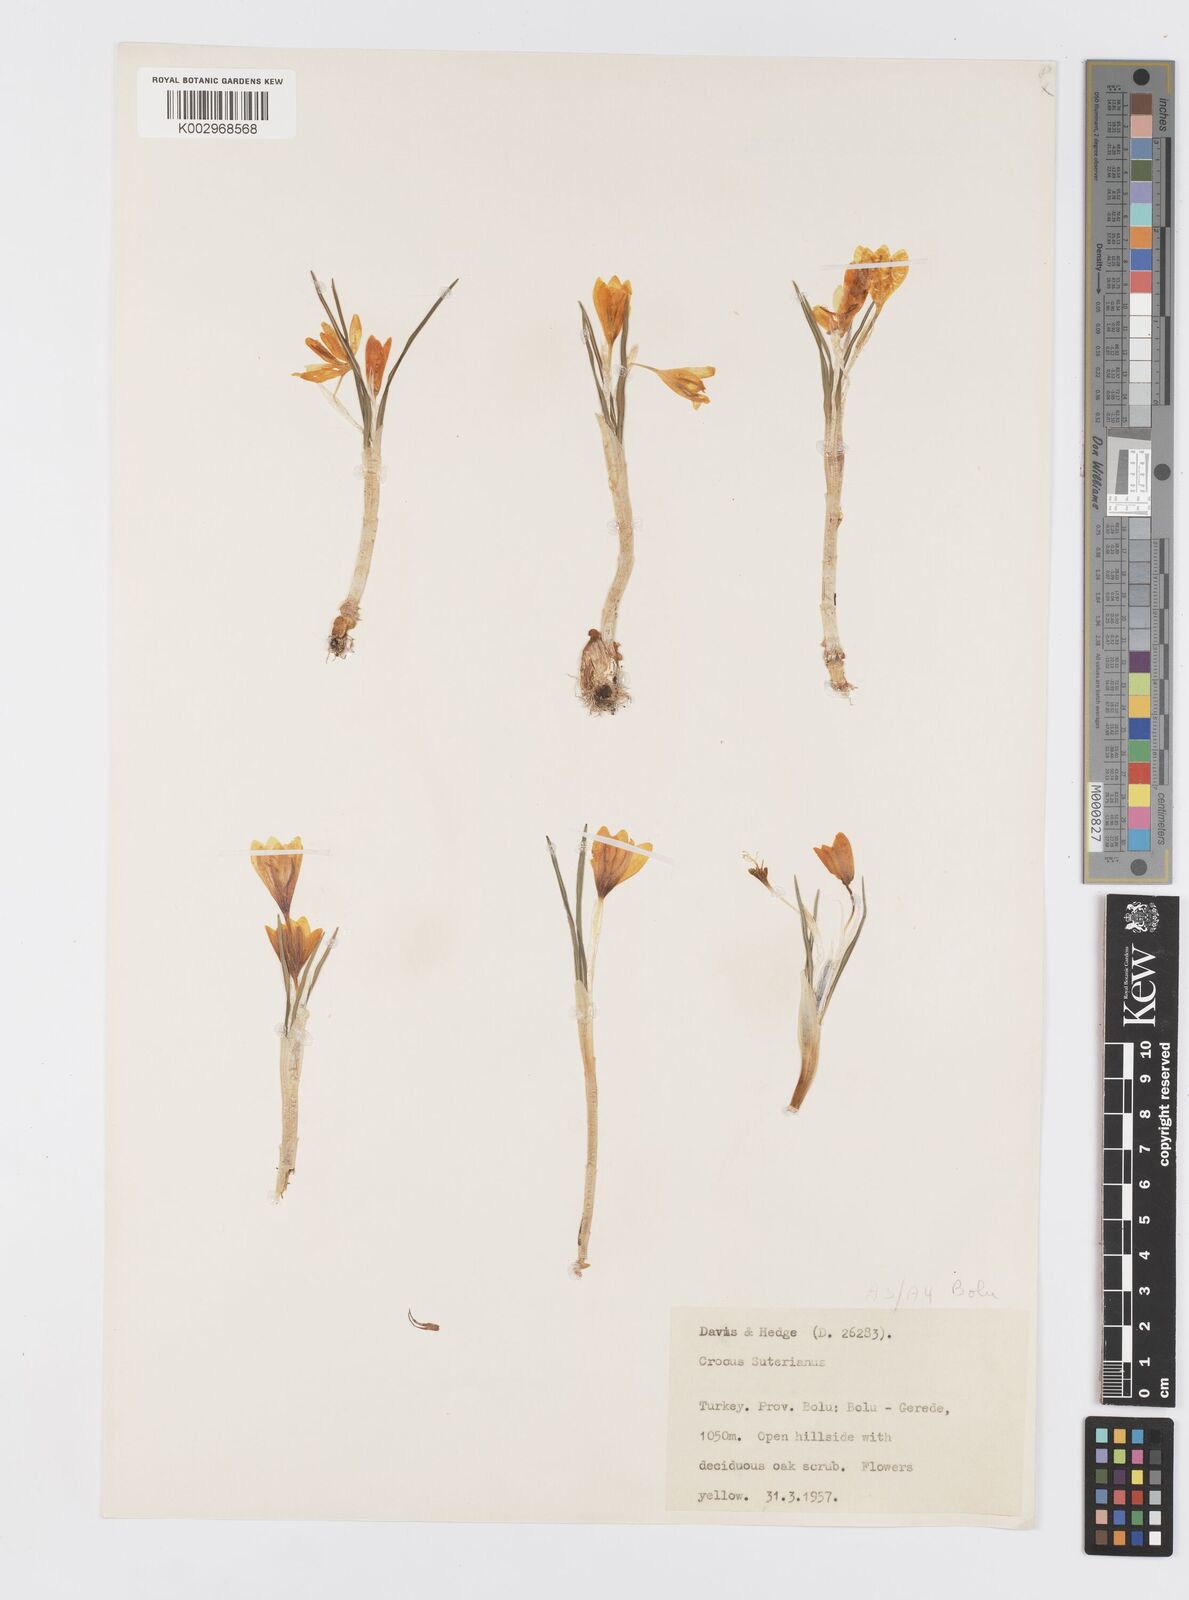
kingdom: Plantae
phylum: Tracheophyta
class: Liliopsida
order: Asparagales
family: Iridaceae
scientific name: Iridaceae
